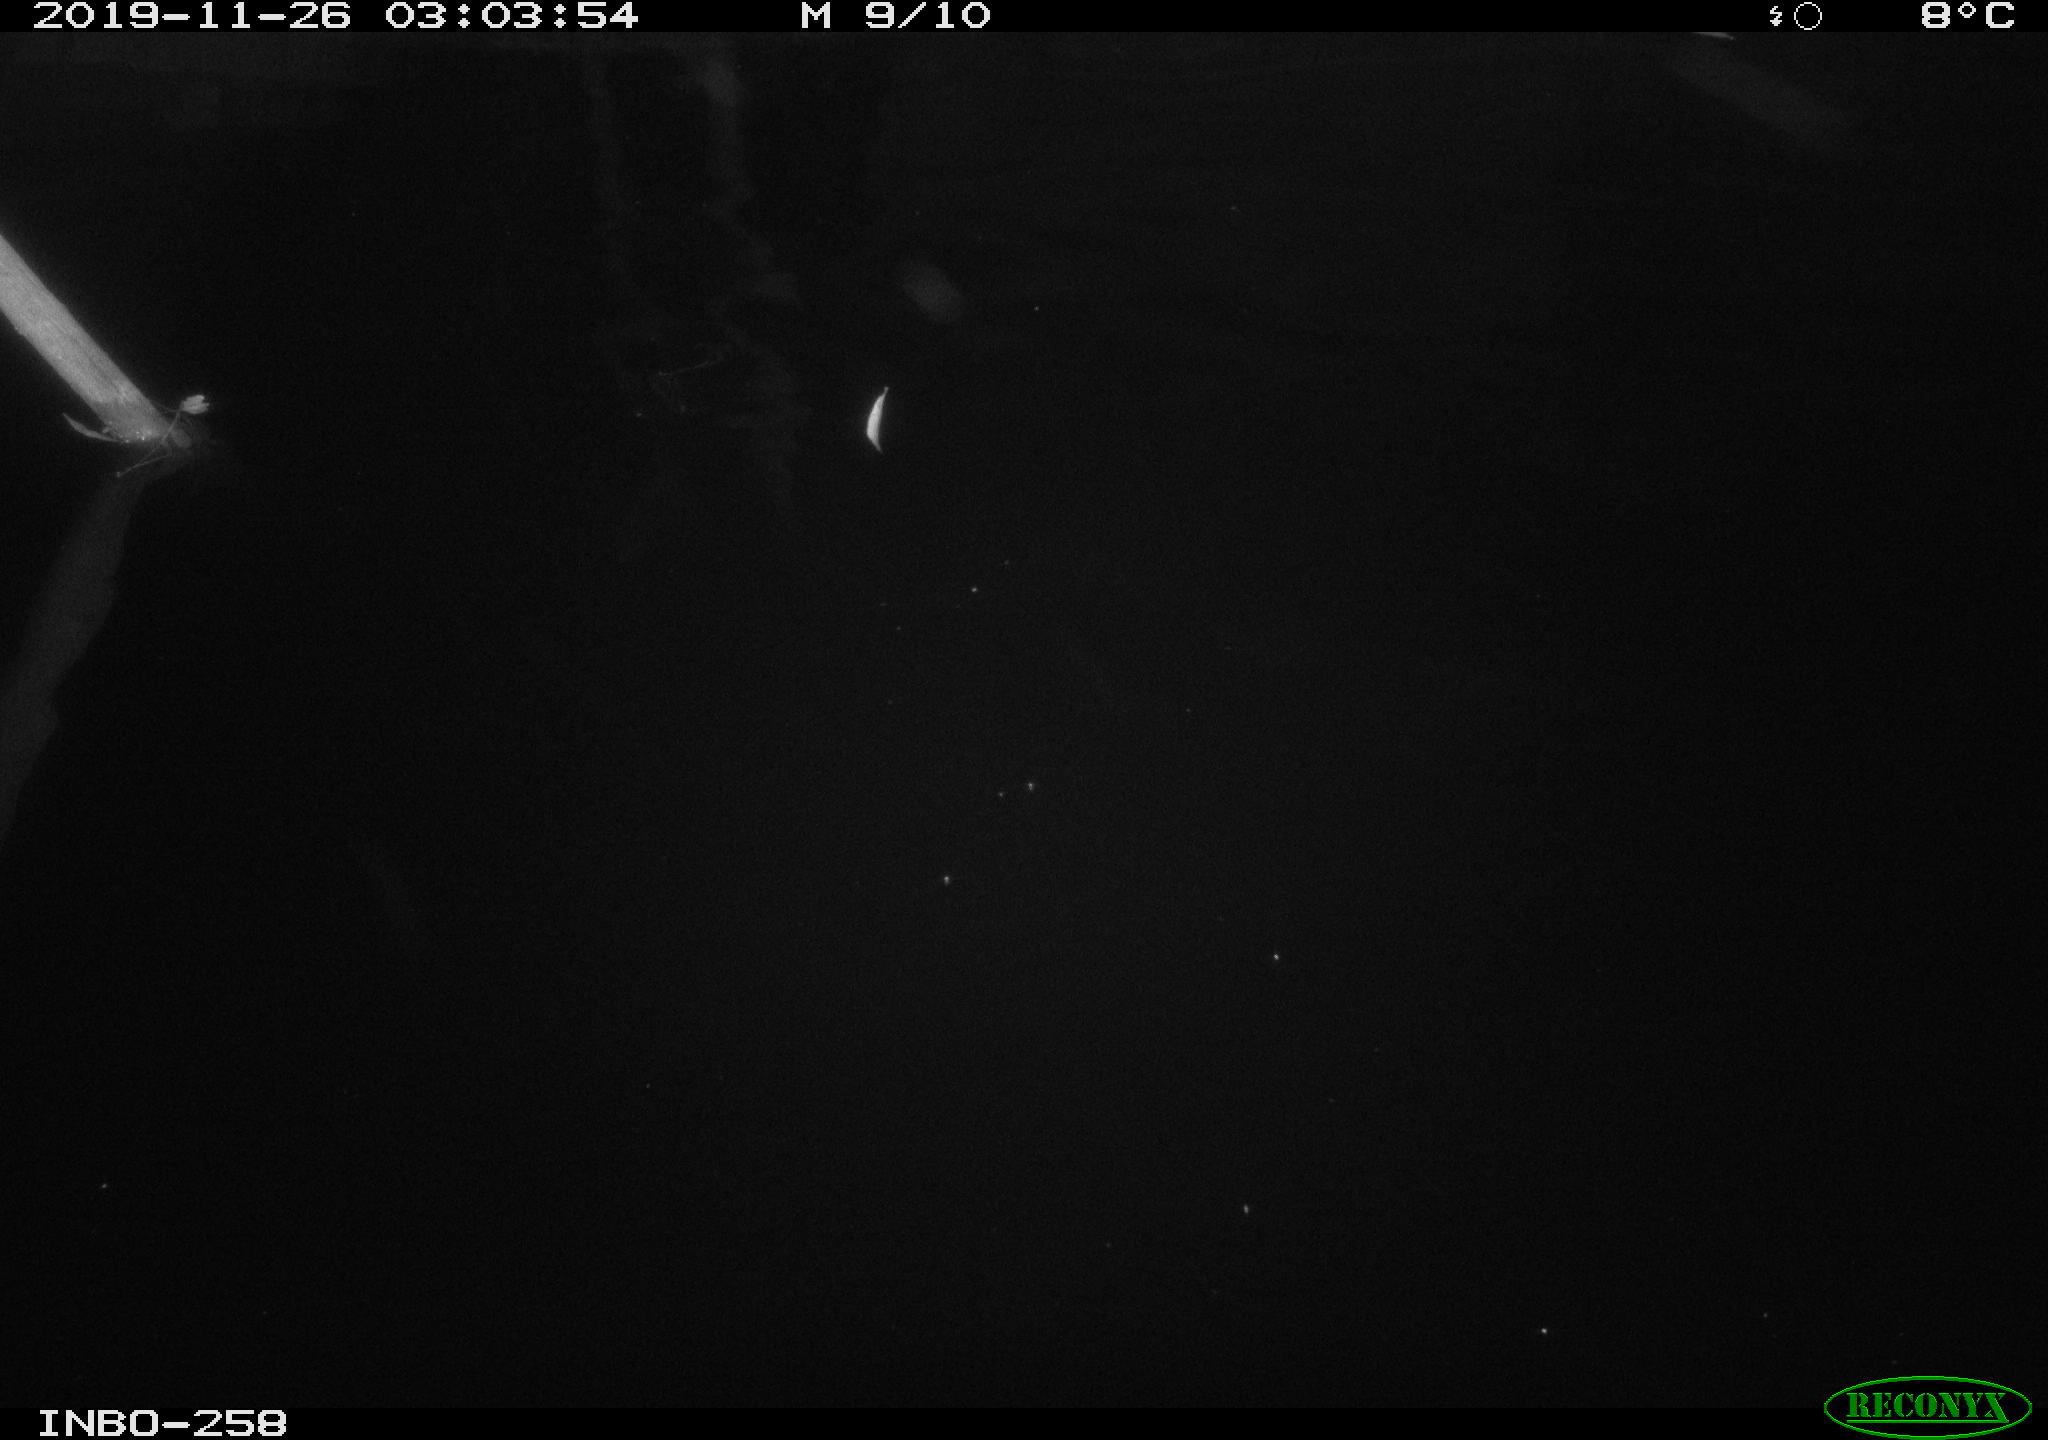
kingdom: Animalia
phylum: Chordata
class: Aves
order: Anseriformes
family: Anatidae
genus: Anas
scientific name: Anas platyrhynchos
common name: Mallard
